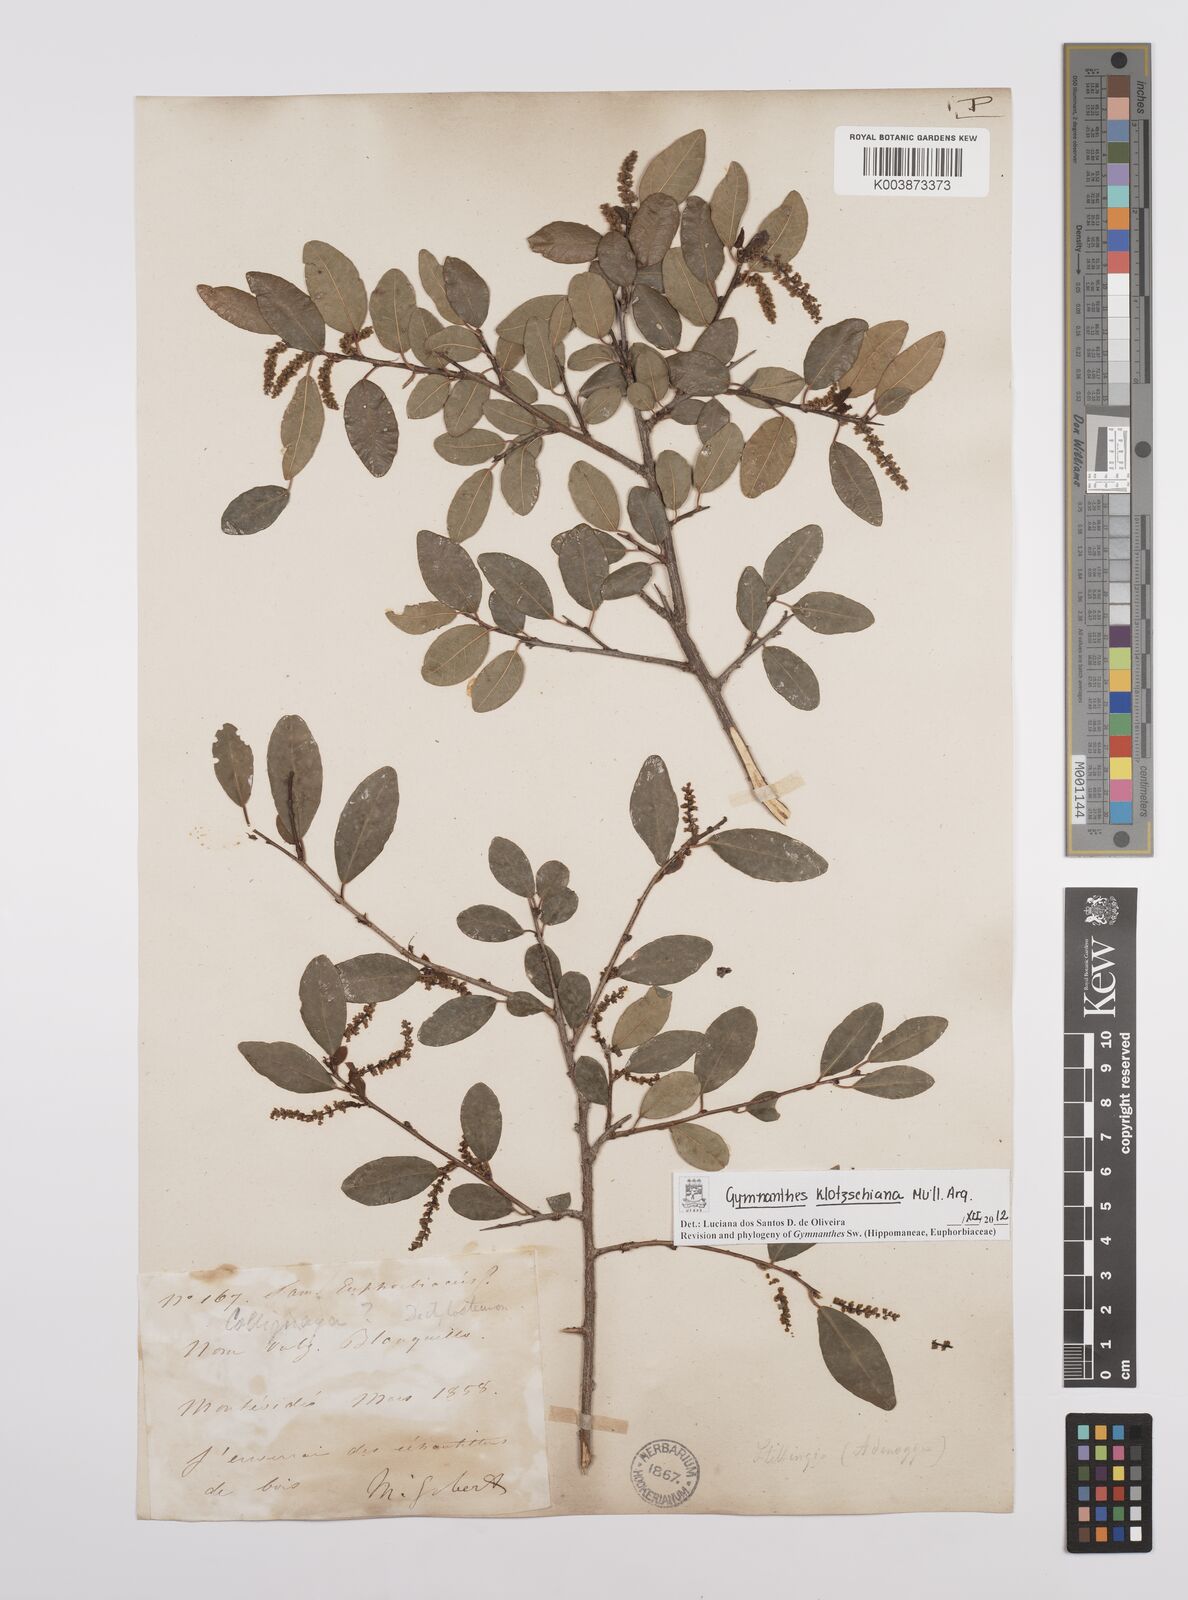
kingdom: Plantae
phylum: Tracheophyta
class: Magnoliopsida
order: Malpighiales
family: Euphorbiaceae
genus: Sebastiania
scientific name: Sebastiania klotzschiana
